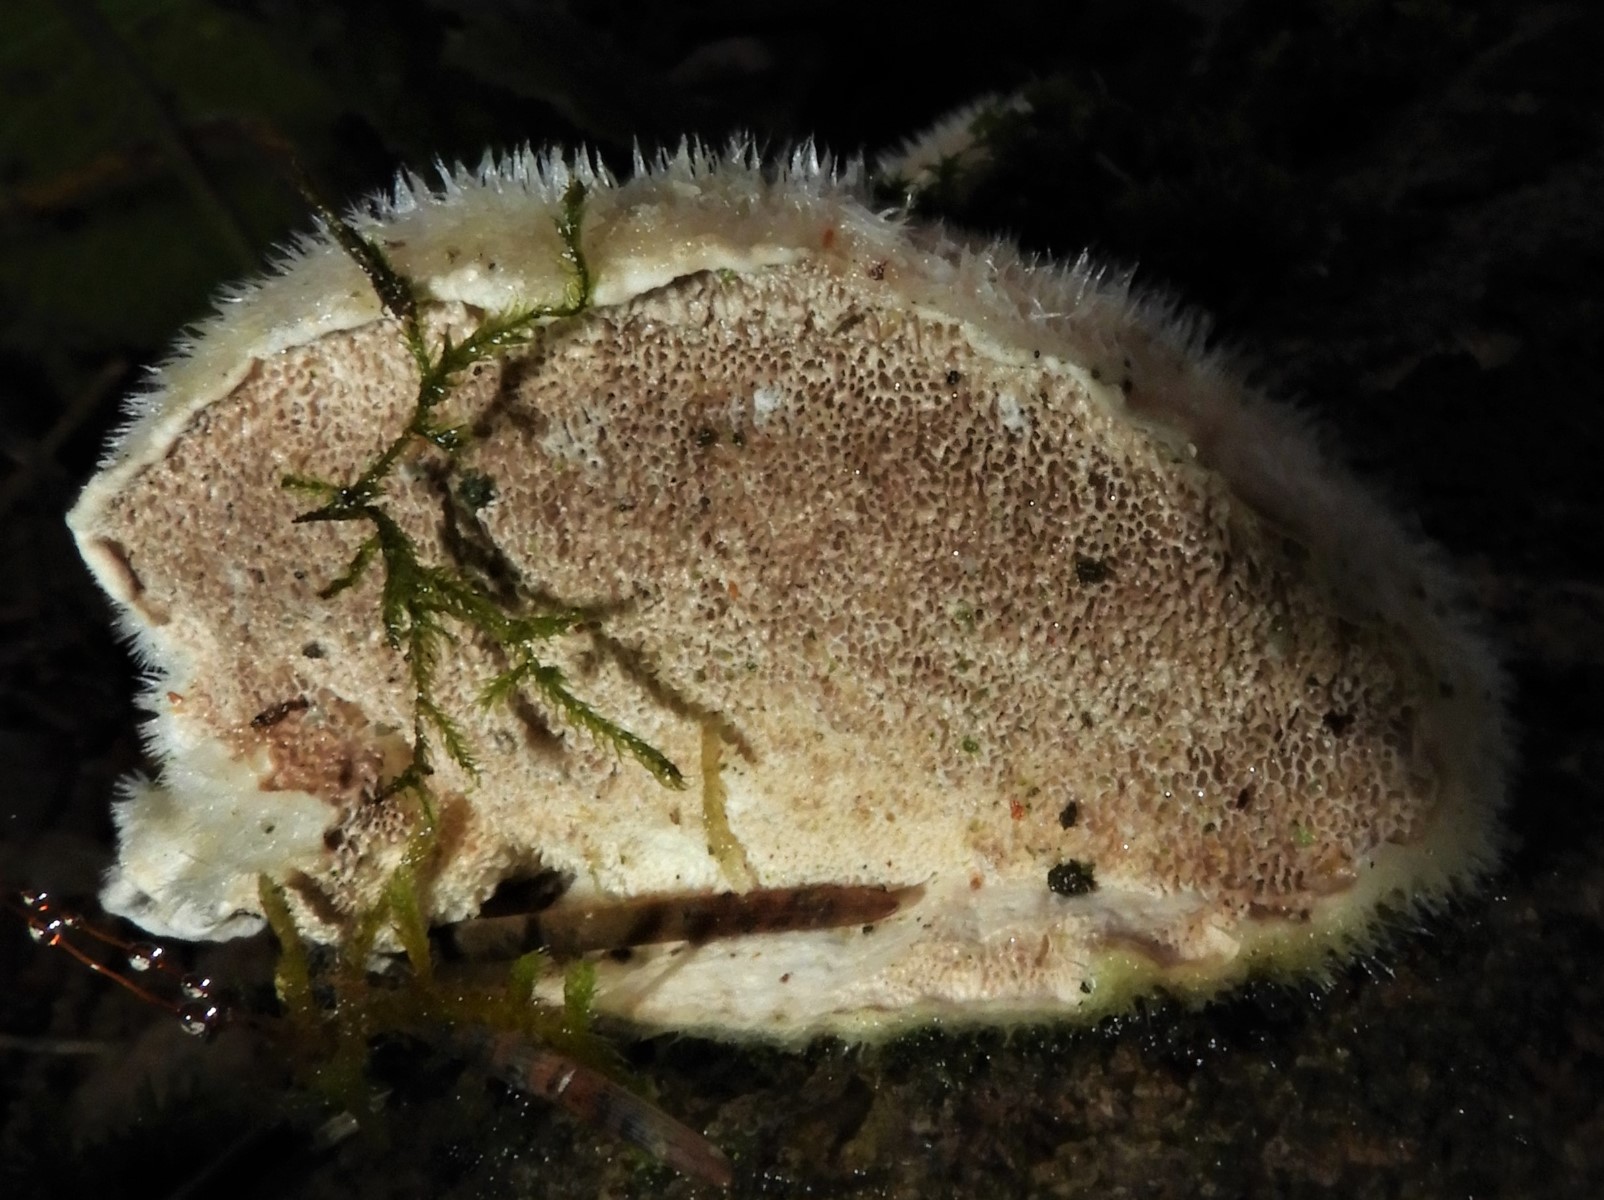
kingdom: Fungi
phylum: Basidiomycota
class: Agaricomycetes
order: Polyporales
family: Polyporaceae
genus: Trametes
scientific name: Trametes hirsuta
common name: håret læderporesvamp
